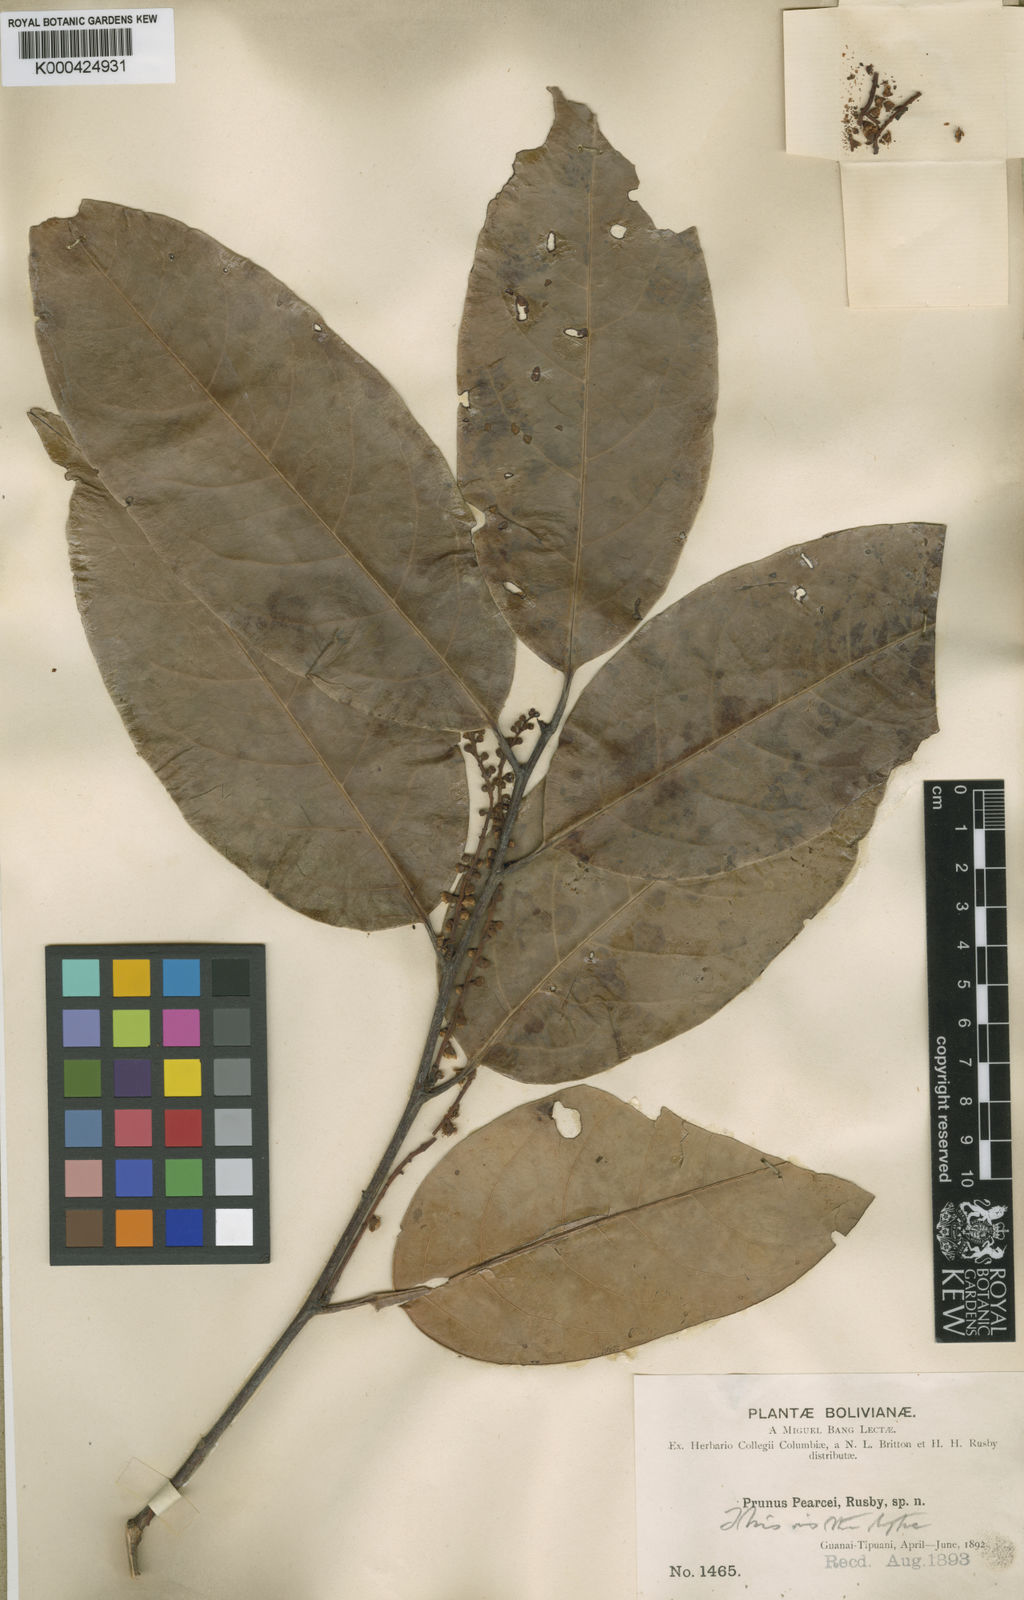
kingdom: Plantae
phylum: Tracheophyta
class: Magnoliopsida
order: Rosales
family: Rosaceae
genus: Prunus
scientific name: Prunus pearcei
